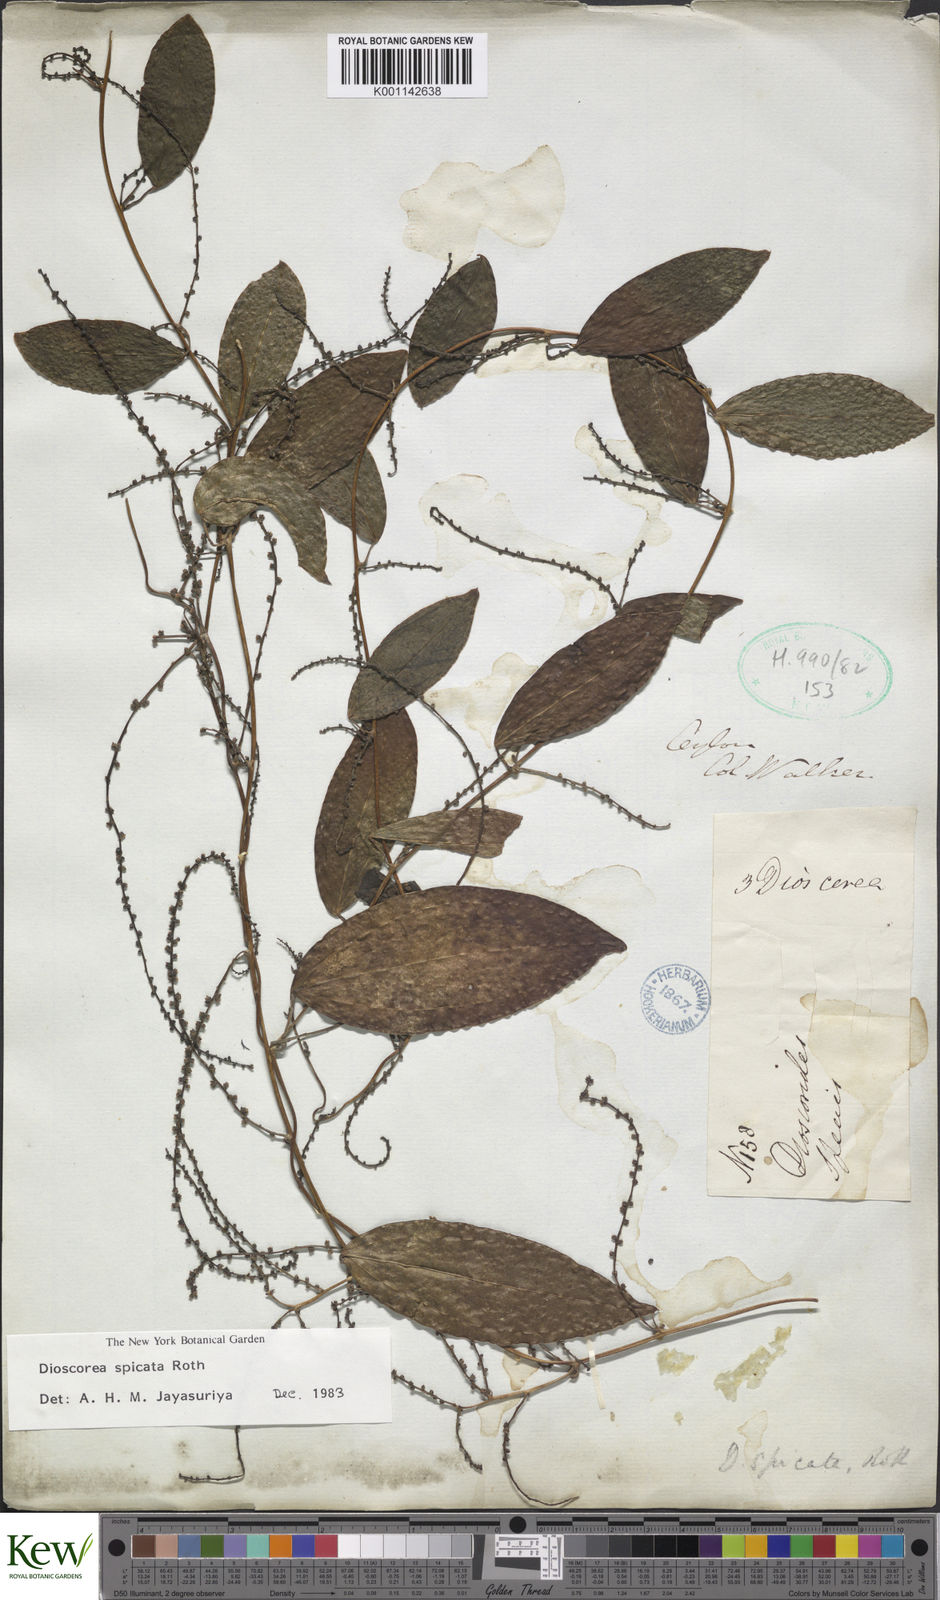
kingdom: Plantae
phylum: Tracheophyta
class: Liliopsida
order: Dioscoreales
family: Dioscoreaceae
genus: Dioscorea
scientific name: Dioscorea spicata
